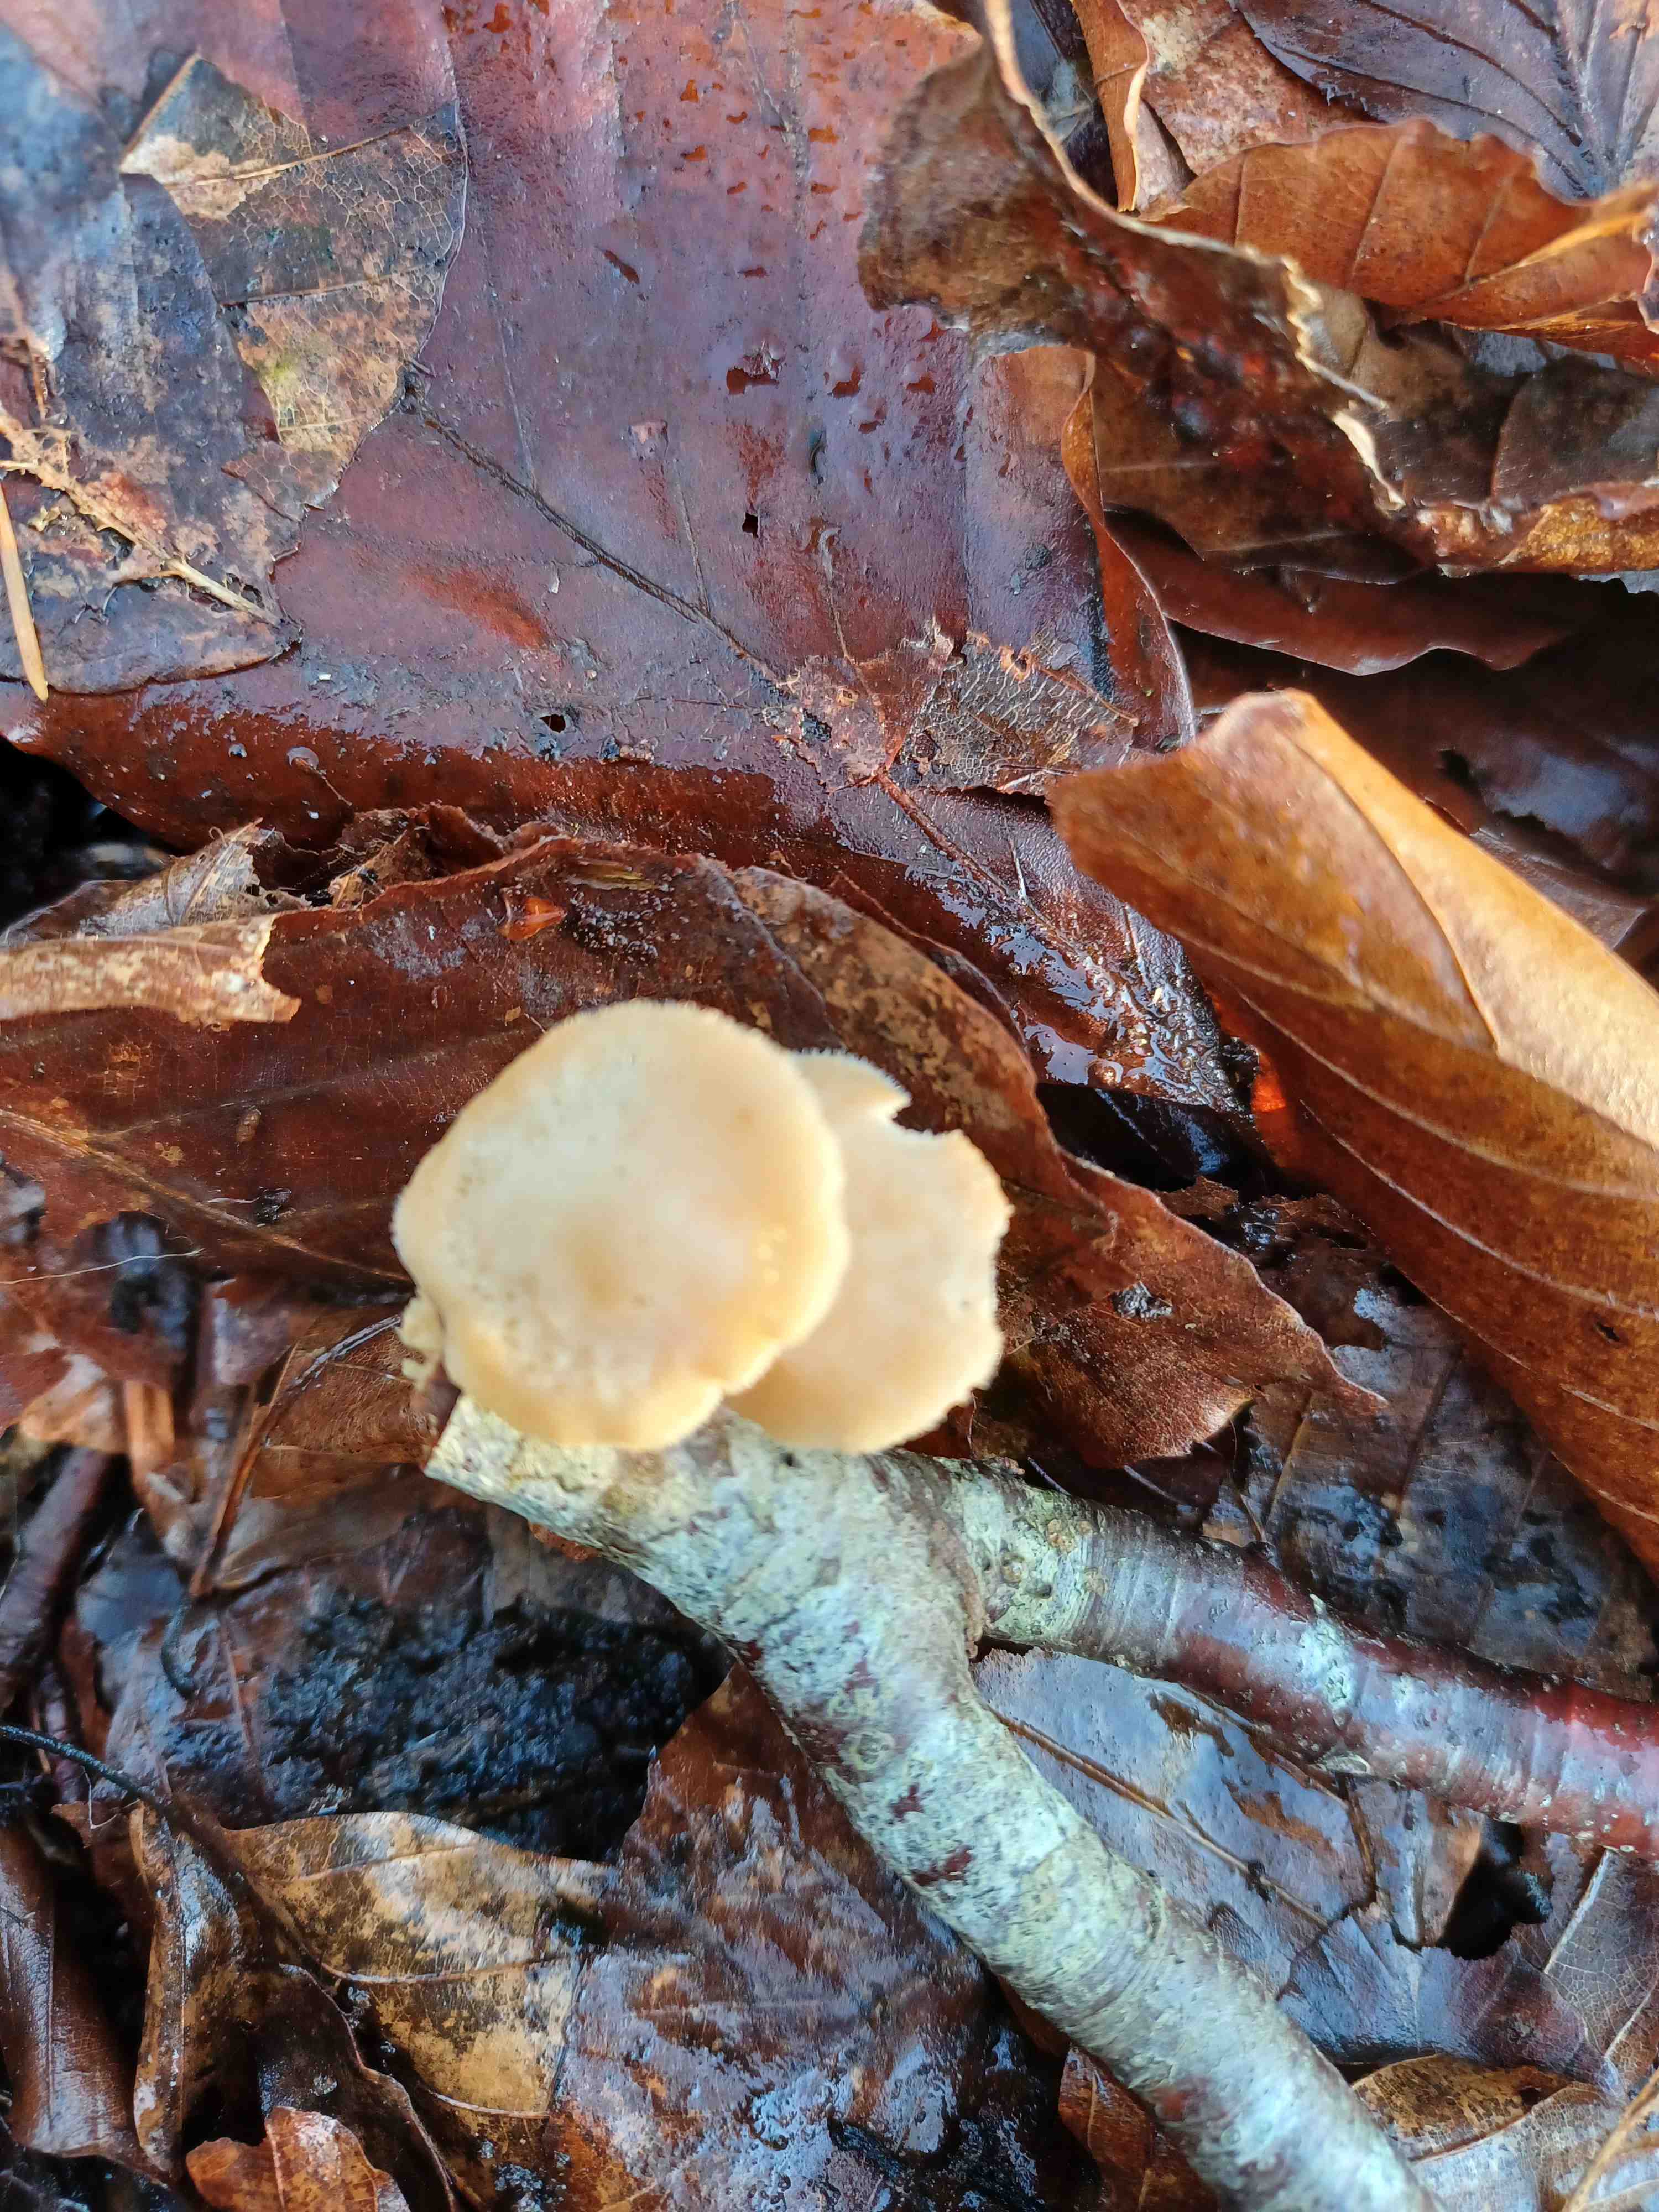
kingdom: Fungi
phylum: Basidiomycota
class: Agaricomycetes
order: Polyporales
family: Polyporaceae
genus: Lentinus
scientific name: Lentinus brumalis
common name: vinter-stilkporesvamp
